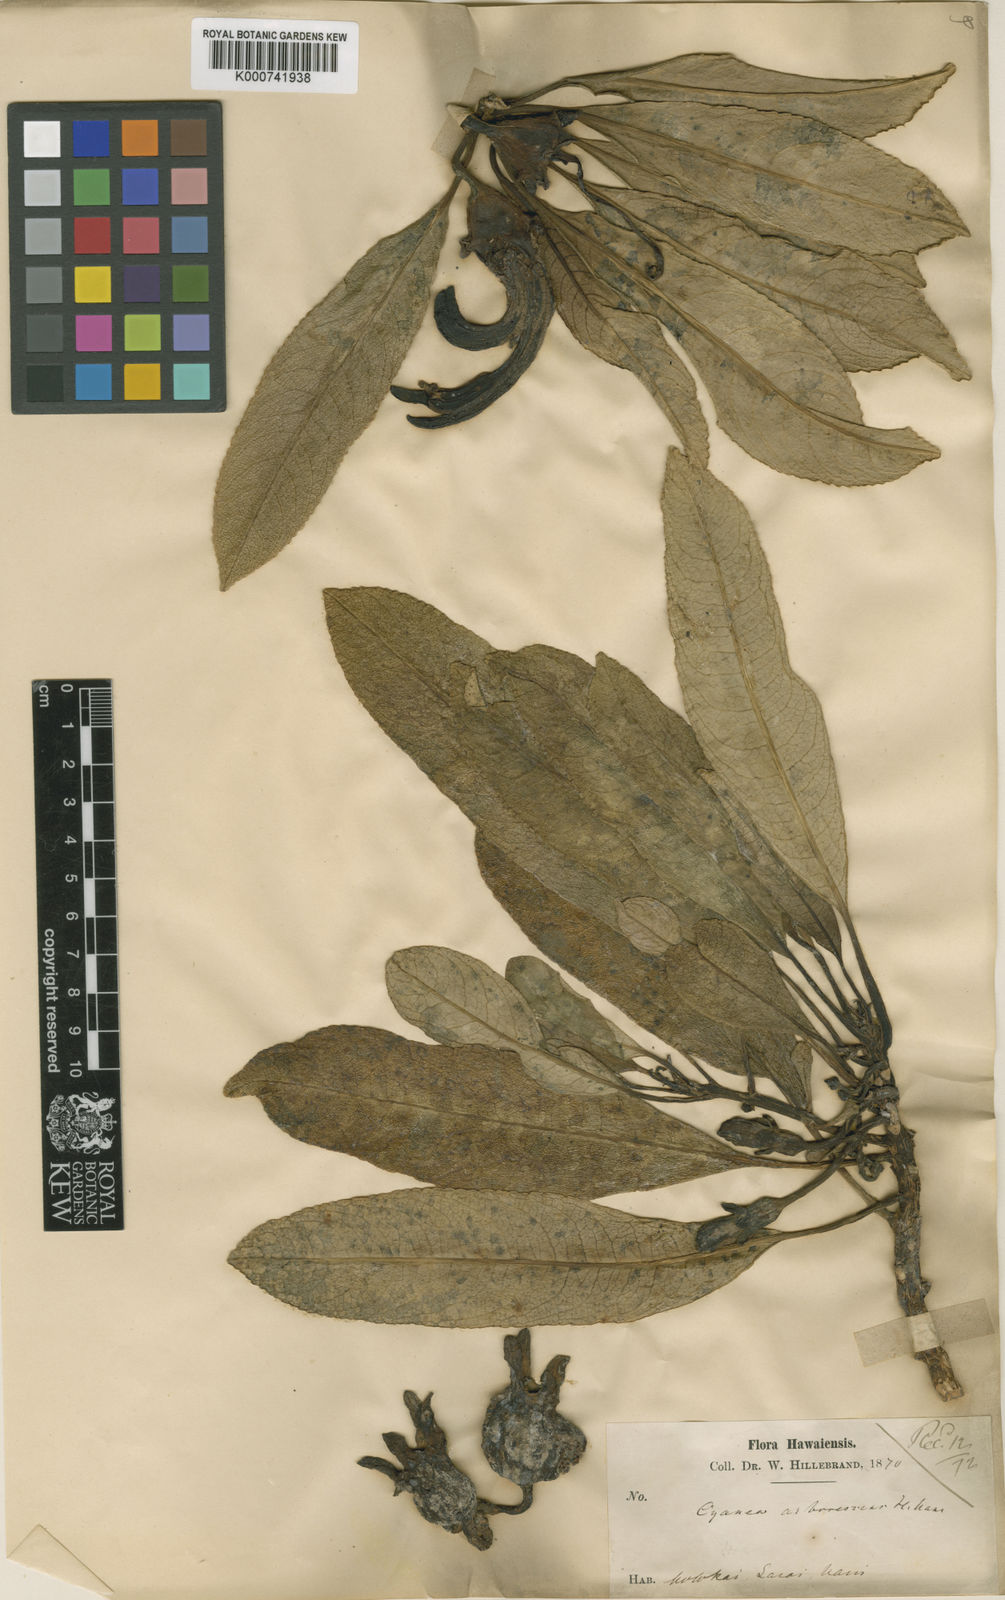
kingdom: Plantae
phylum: Tracheophyta
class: Magnoliopsida
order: Asterales
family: Campanulaceae
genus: Clermontia
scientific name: Clermontia arborescens
